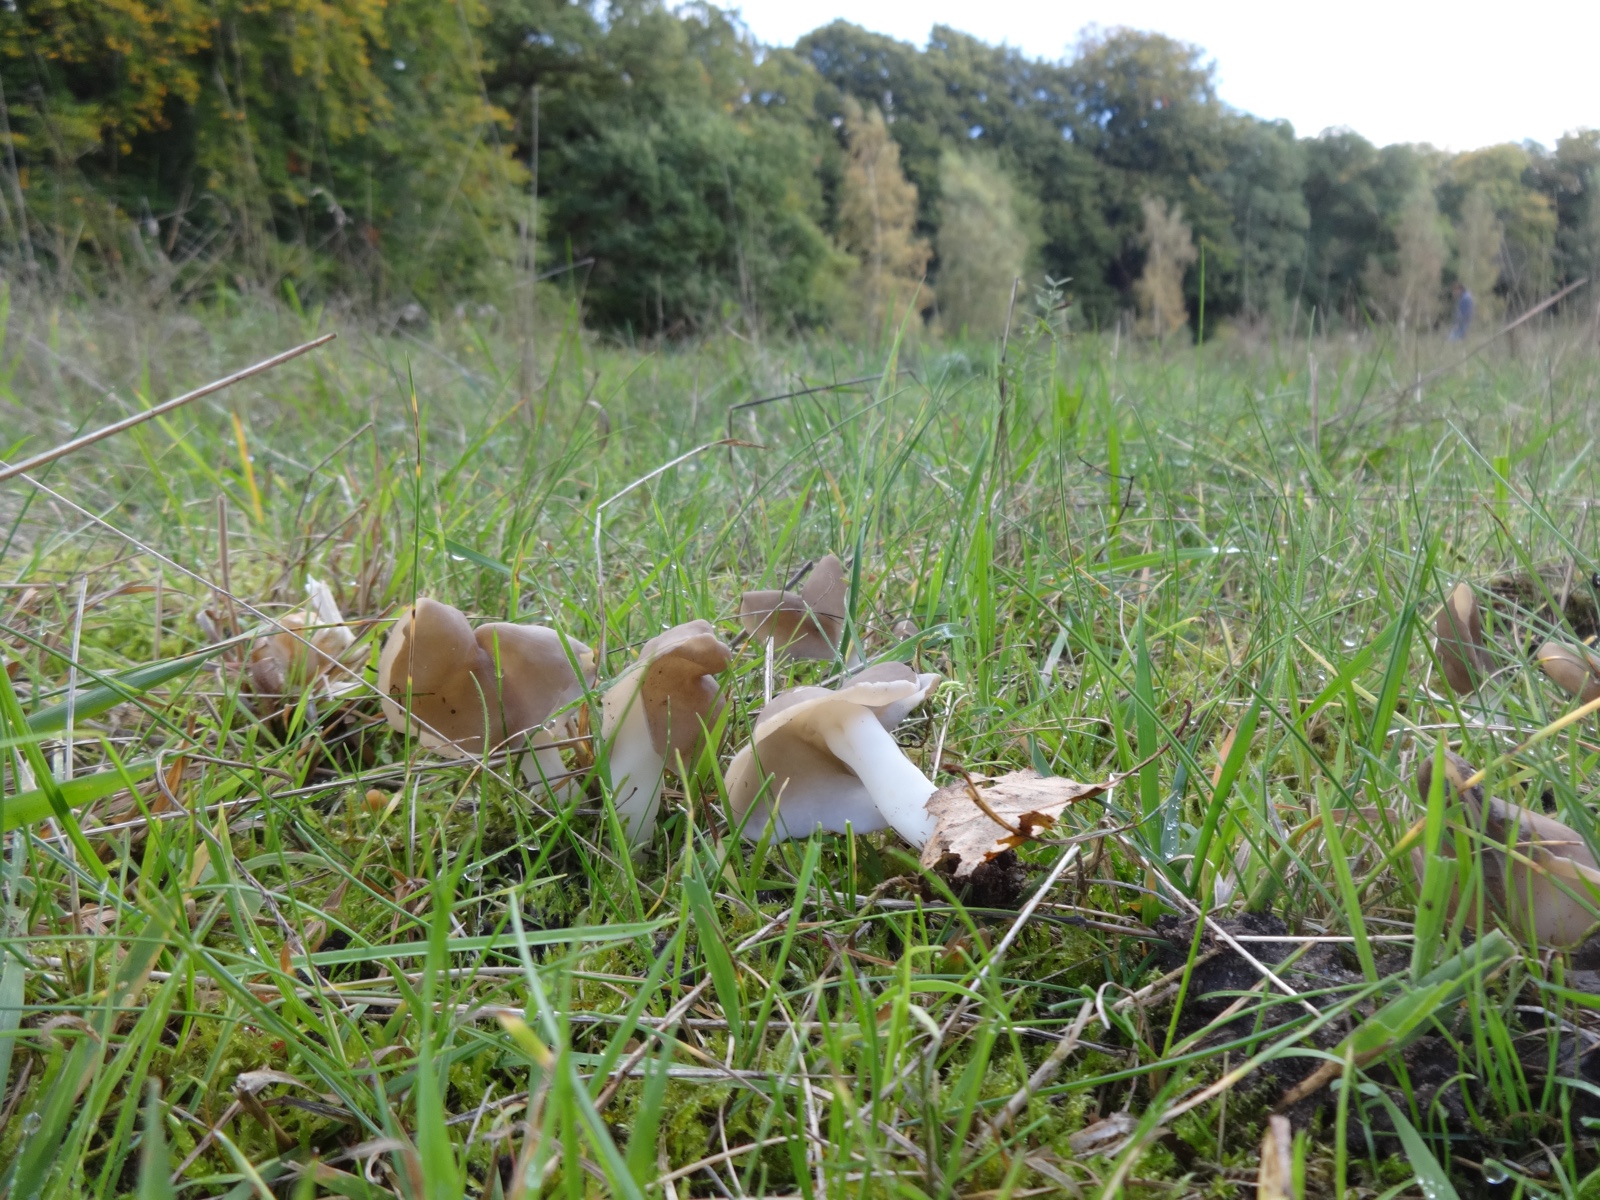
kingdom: Fungi
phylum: Ascomycota
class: Pezizomycetes
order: Pezizales
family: Helvellaceae
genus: Helvella
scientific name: Helvella elastica
